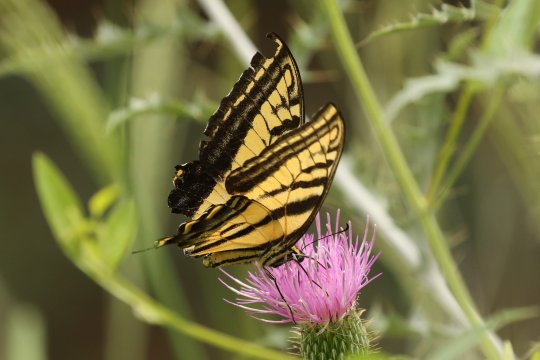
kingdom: Animalia
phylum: Arthropoda
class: Insecta
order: Lepidoptera
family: Papilionidae
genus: Papilio
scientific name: Papilio multicaudata
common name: Two-tailed Swallowtail
